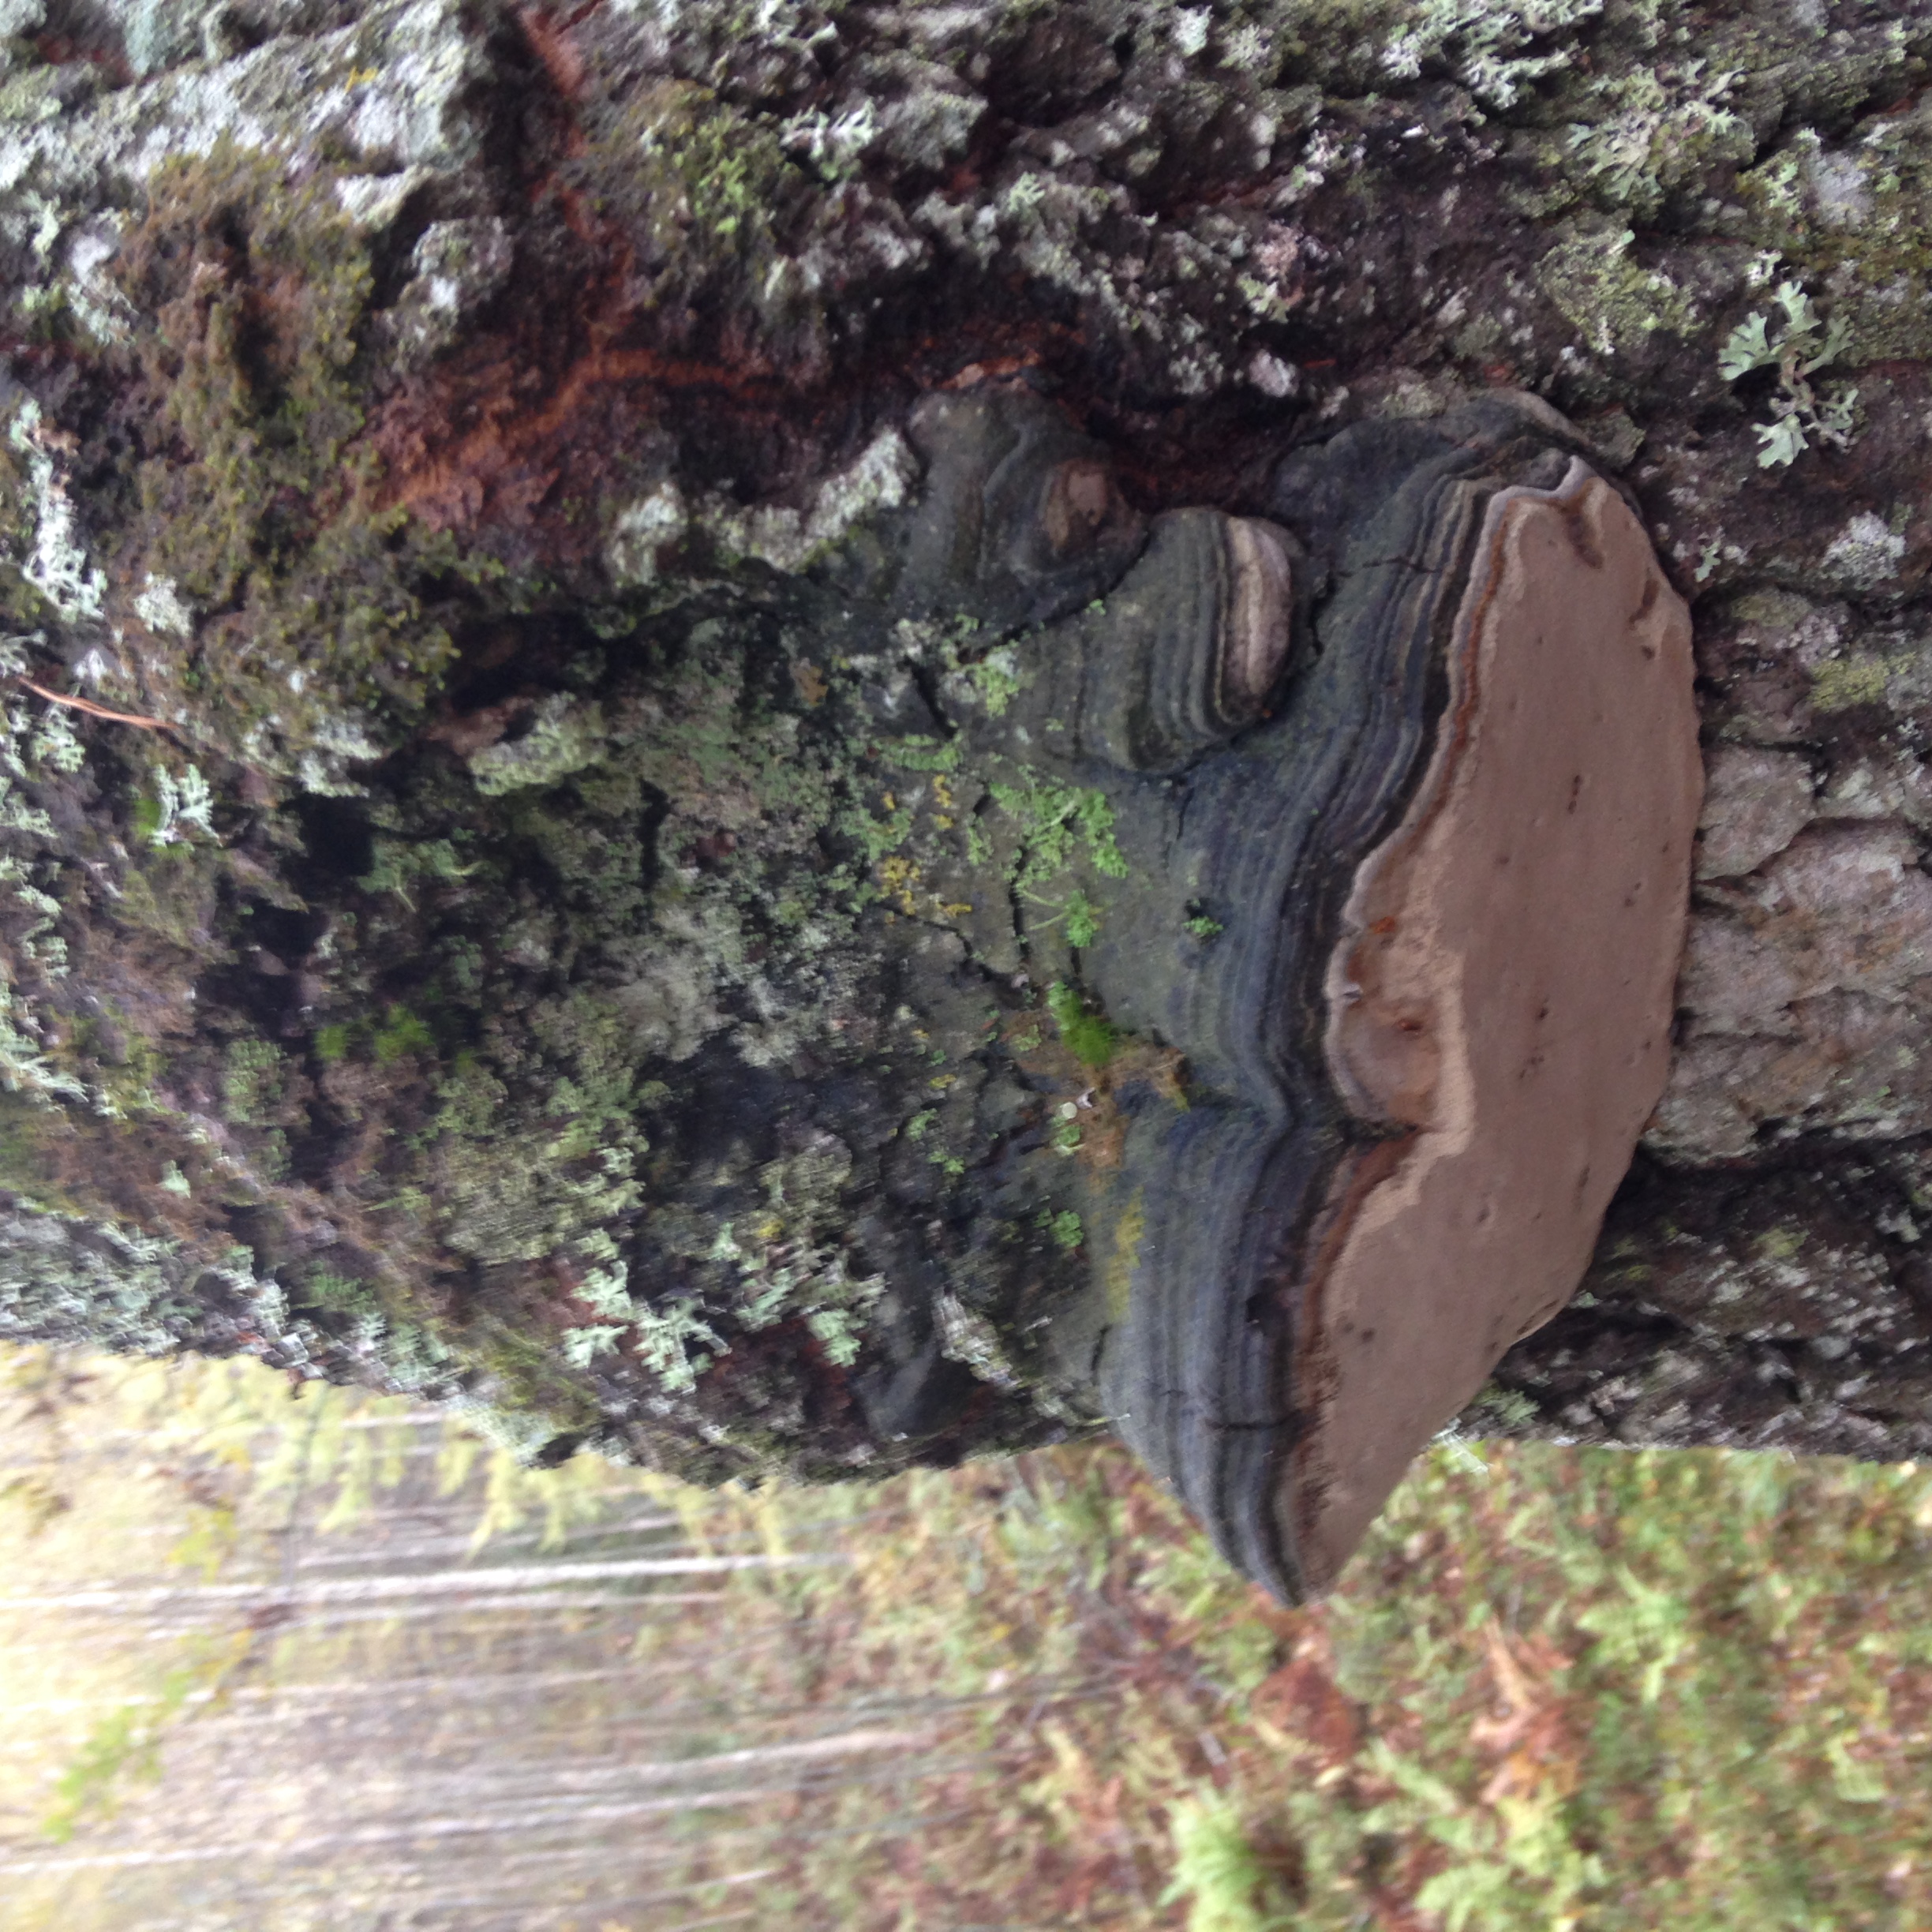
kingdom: Fungi
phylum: Basidiomycota
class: Agaricomycetes
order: Hymenochaetales
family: Hymenochaetaceae
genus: Phellinus
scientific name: Phellinus tremulae
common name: Aspen bracket
